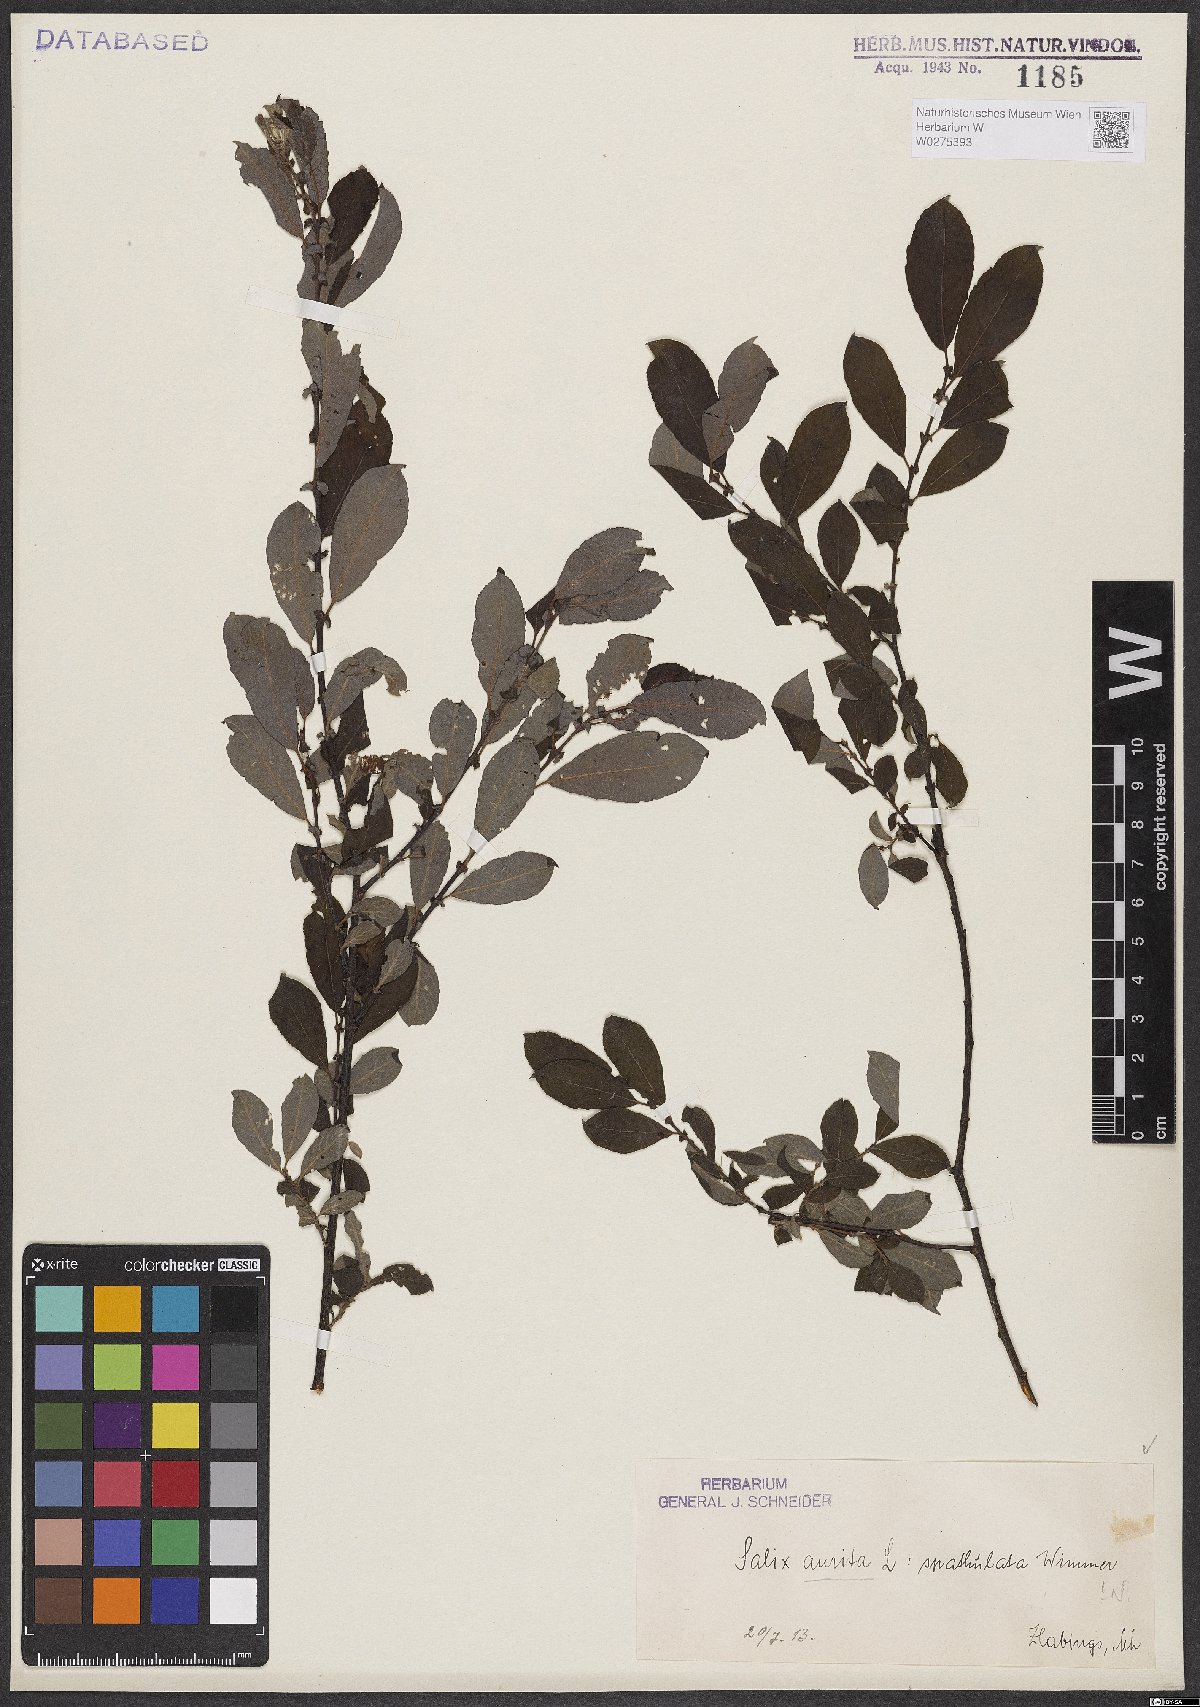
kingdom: Plantae
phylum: Tracheophyta
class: Magnoliopsida
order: Malpighiales
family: Salicaceae
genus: Salix
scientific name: Salix aurita
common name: Eared willow
